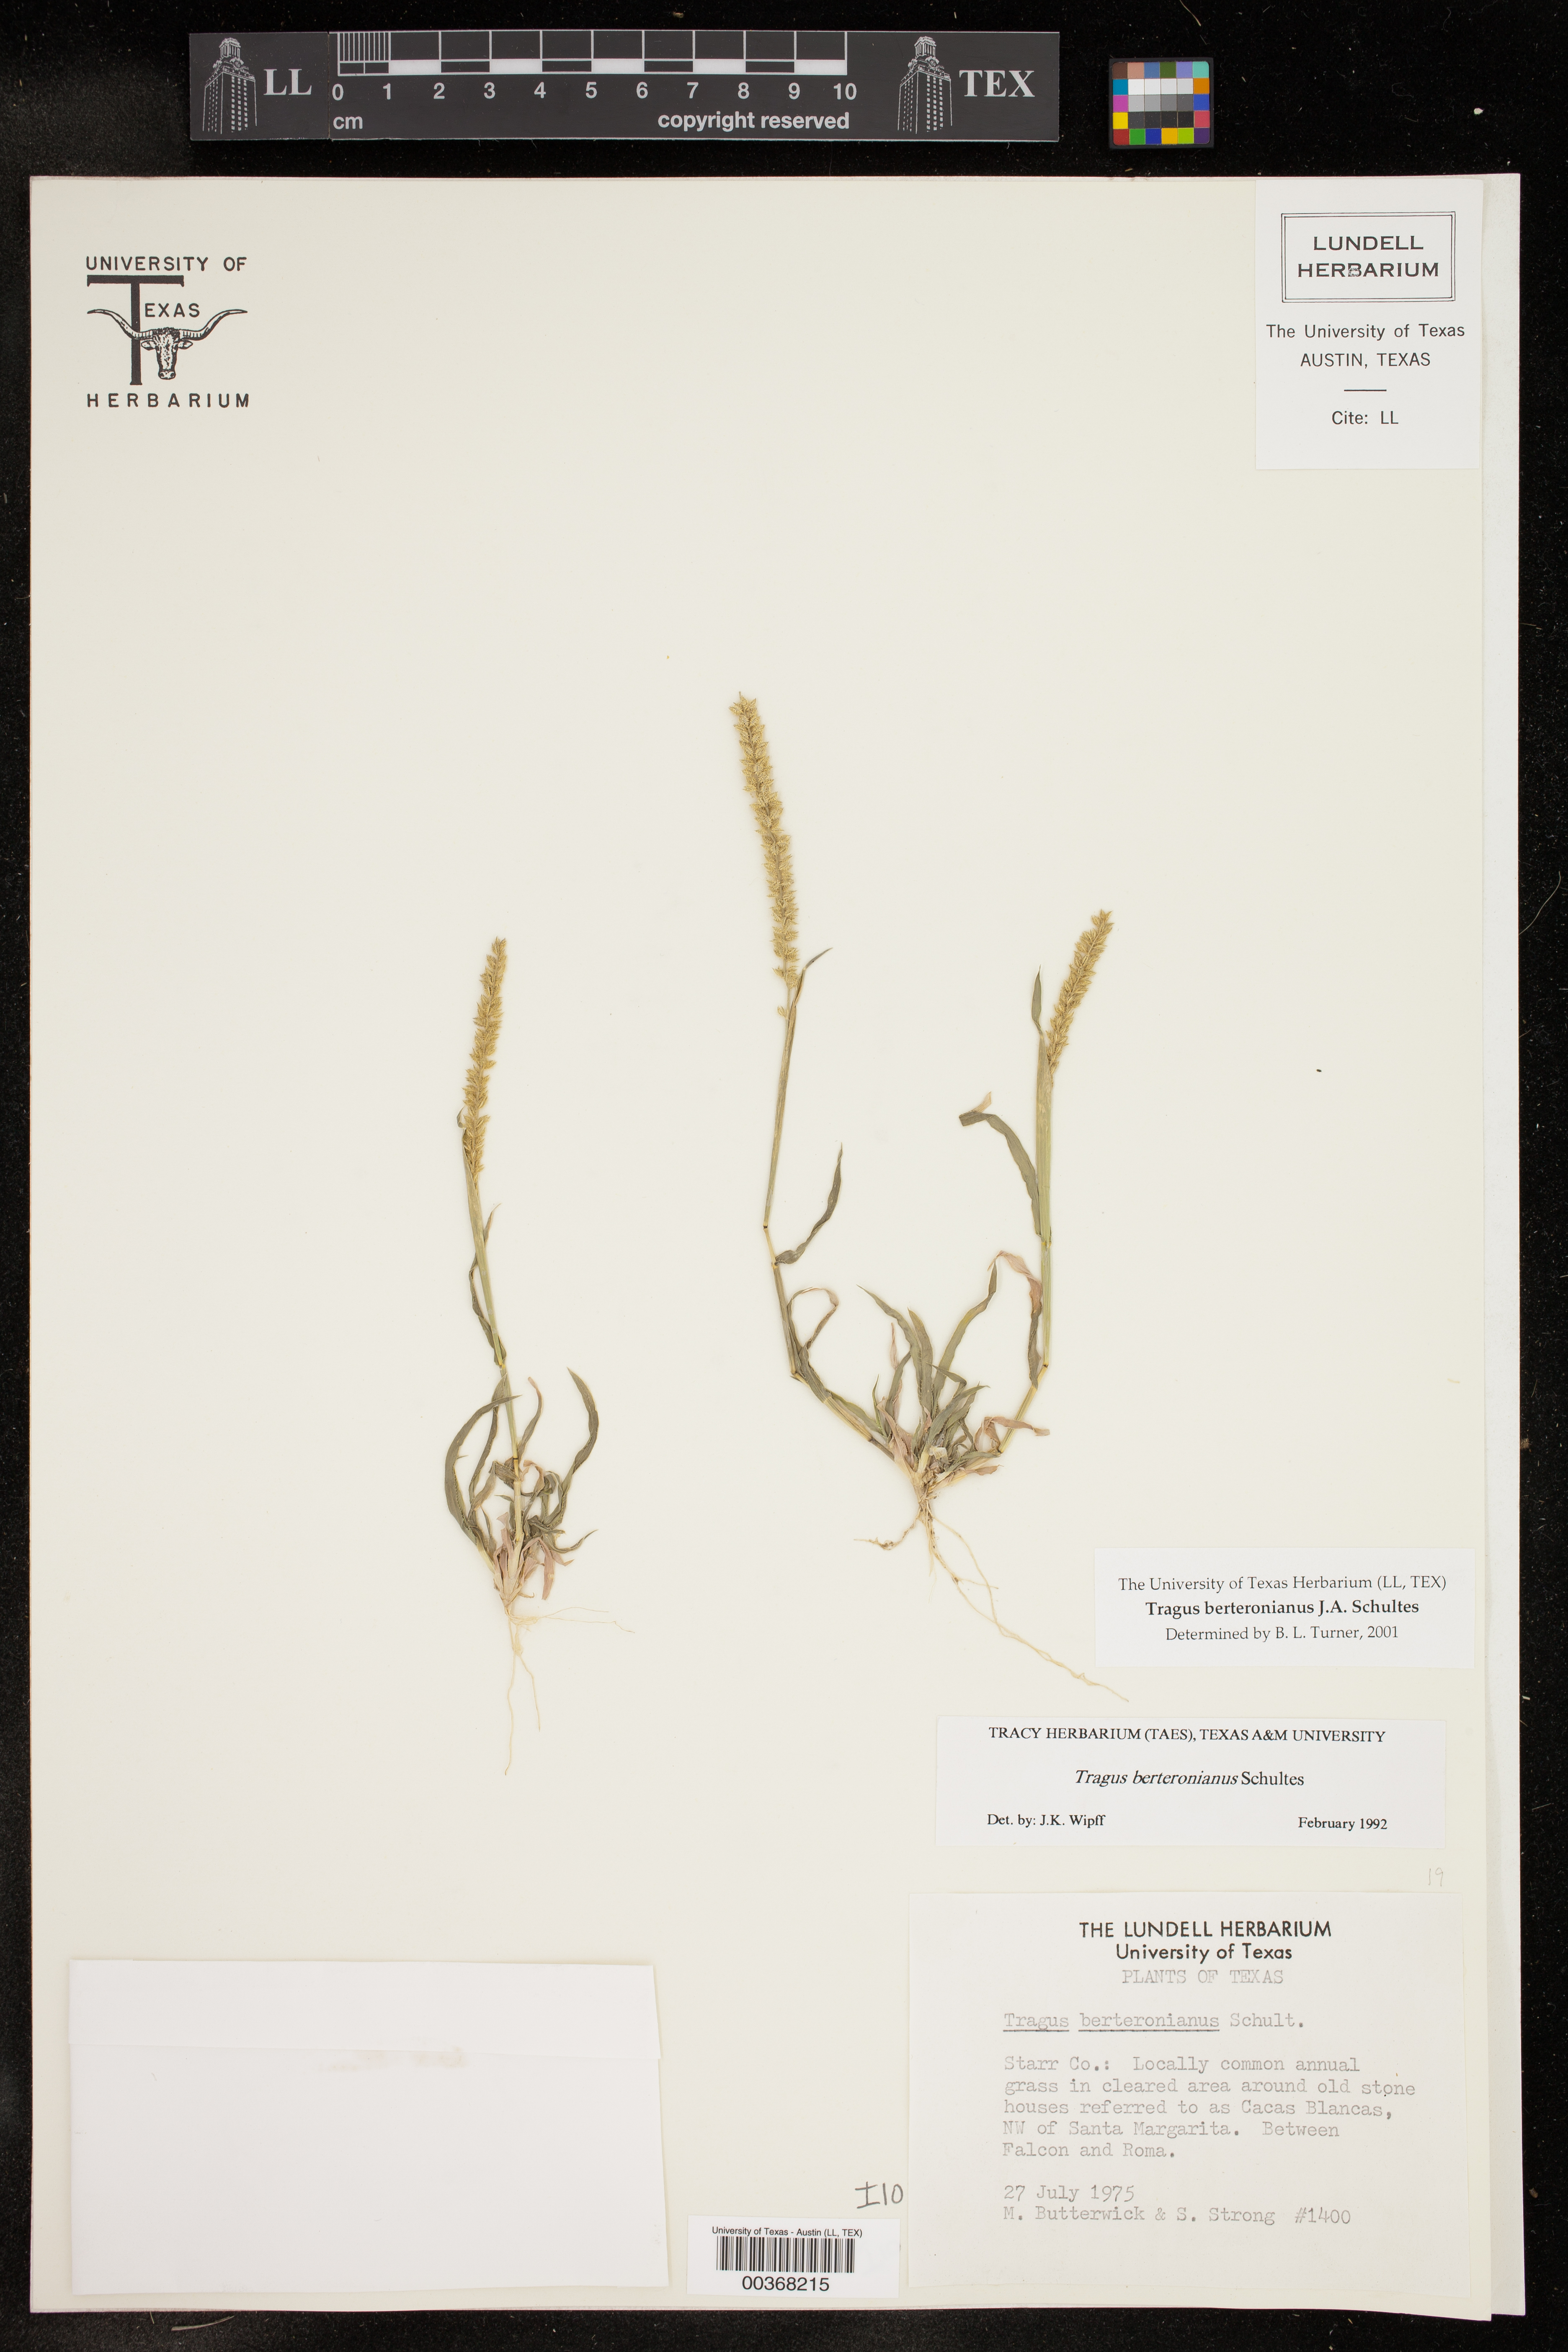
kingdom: Plantae
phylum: Tracheophyta
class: Liliopsida
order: Poales
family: Poaceae
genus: Tragus
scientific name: Tragus berteronianus
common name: African bur-grass
